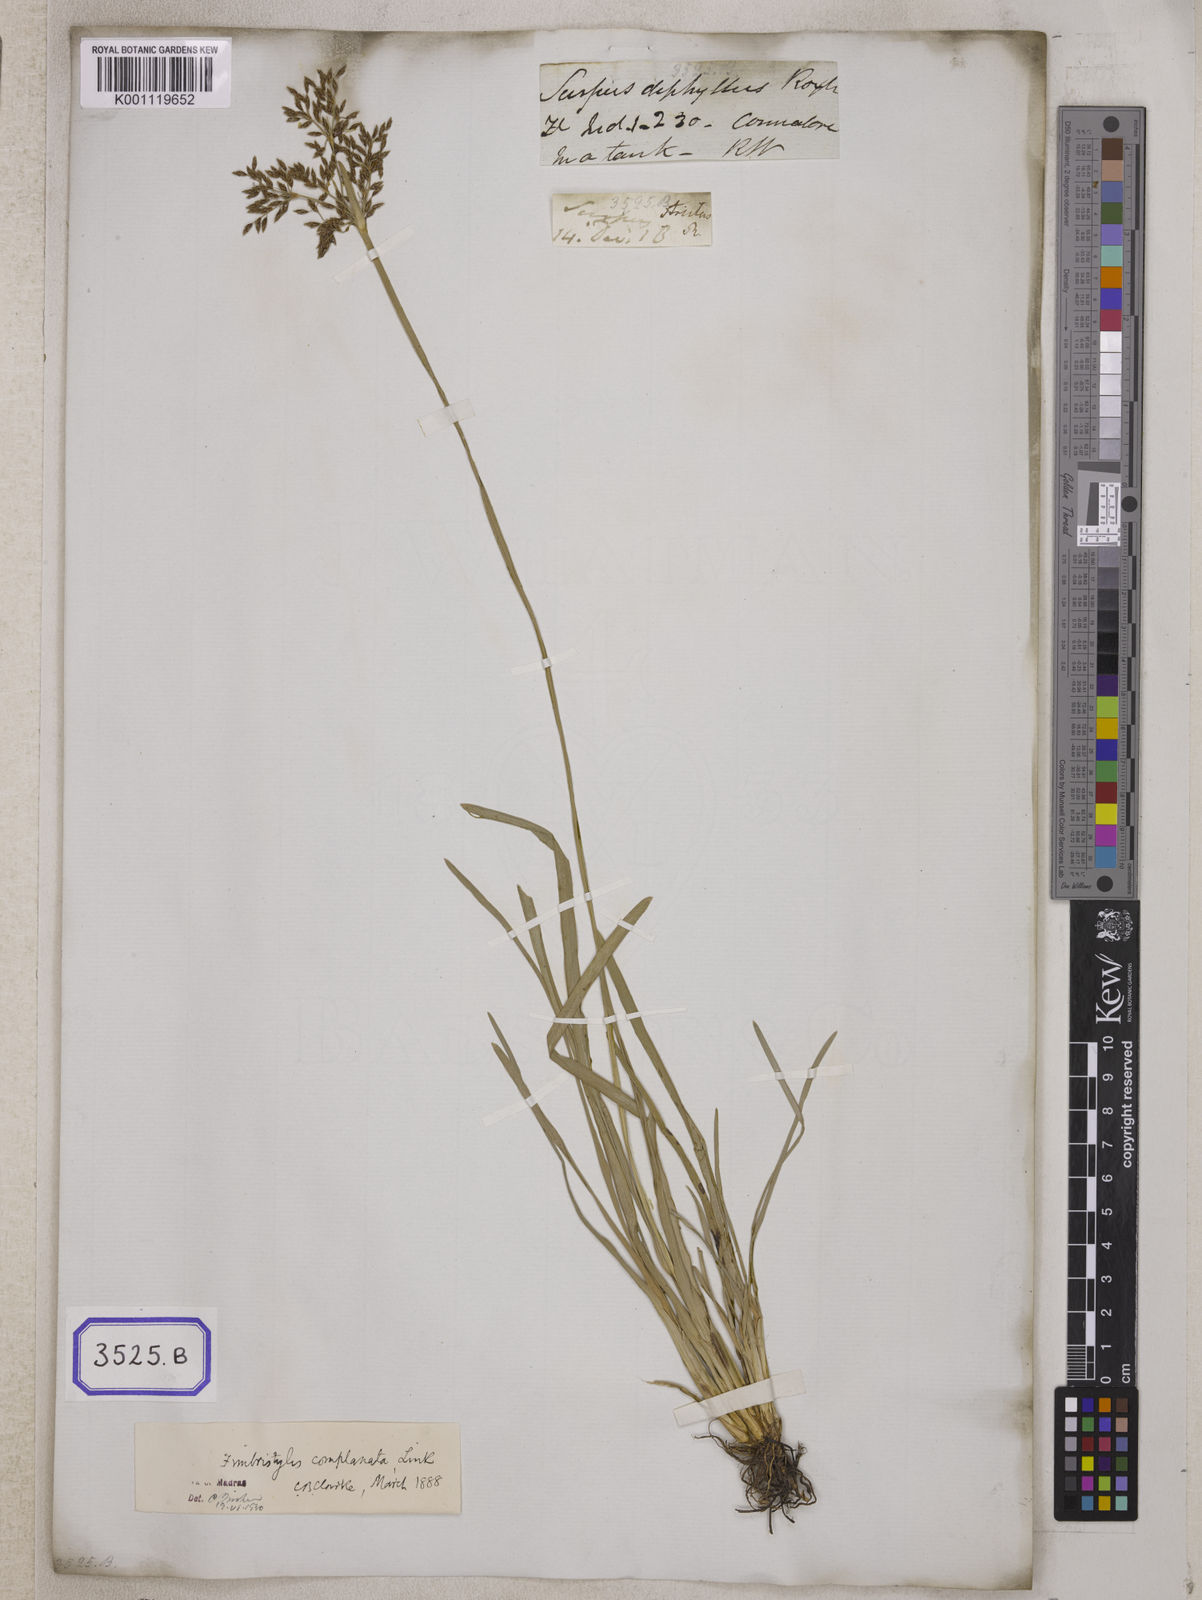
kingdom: Plantae
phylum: Tracheophyta
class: Liliopsida
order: Poales
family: Cyperaceae
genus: Fimbristylis
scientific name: Fimbristylis
